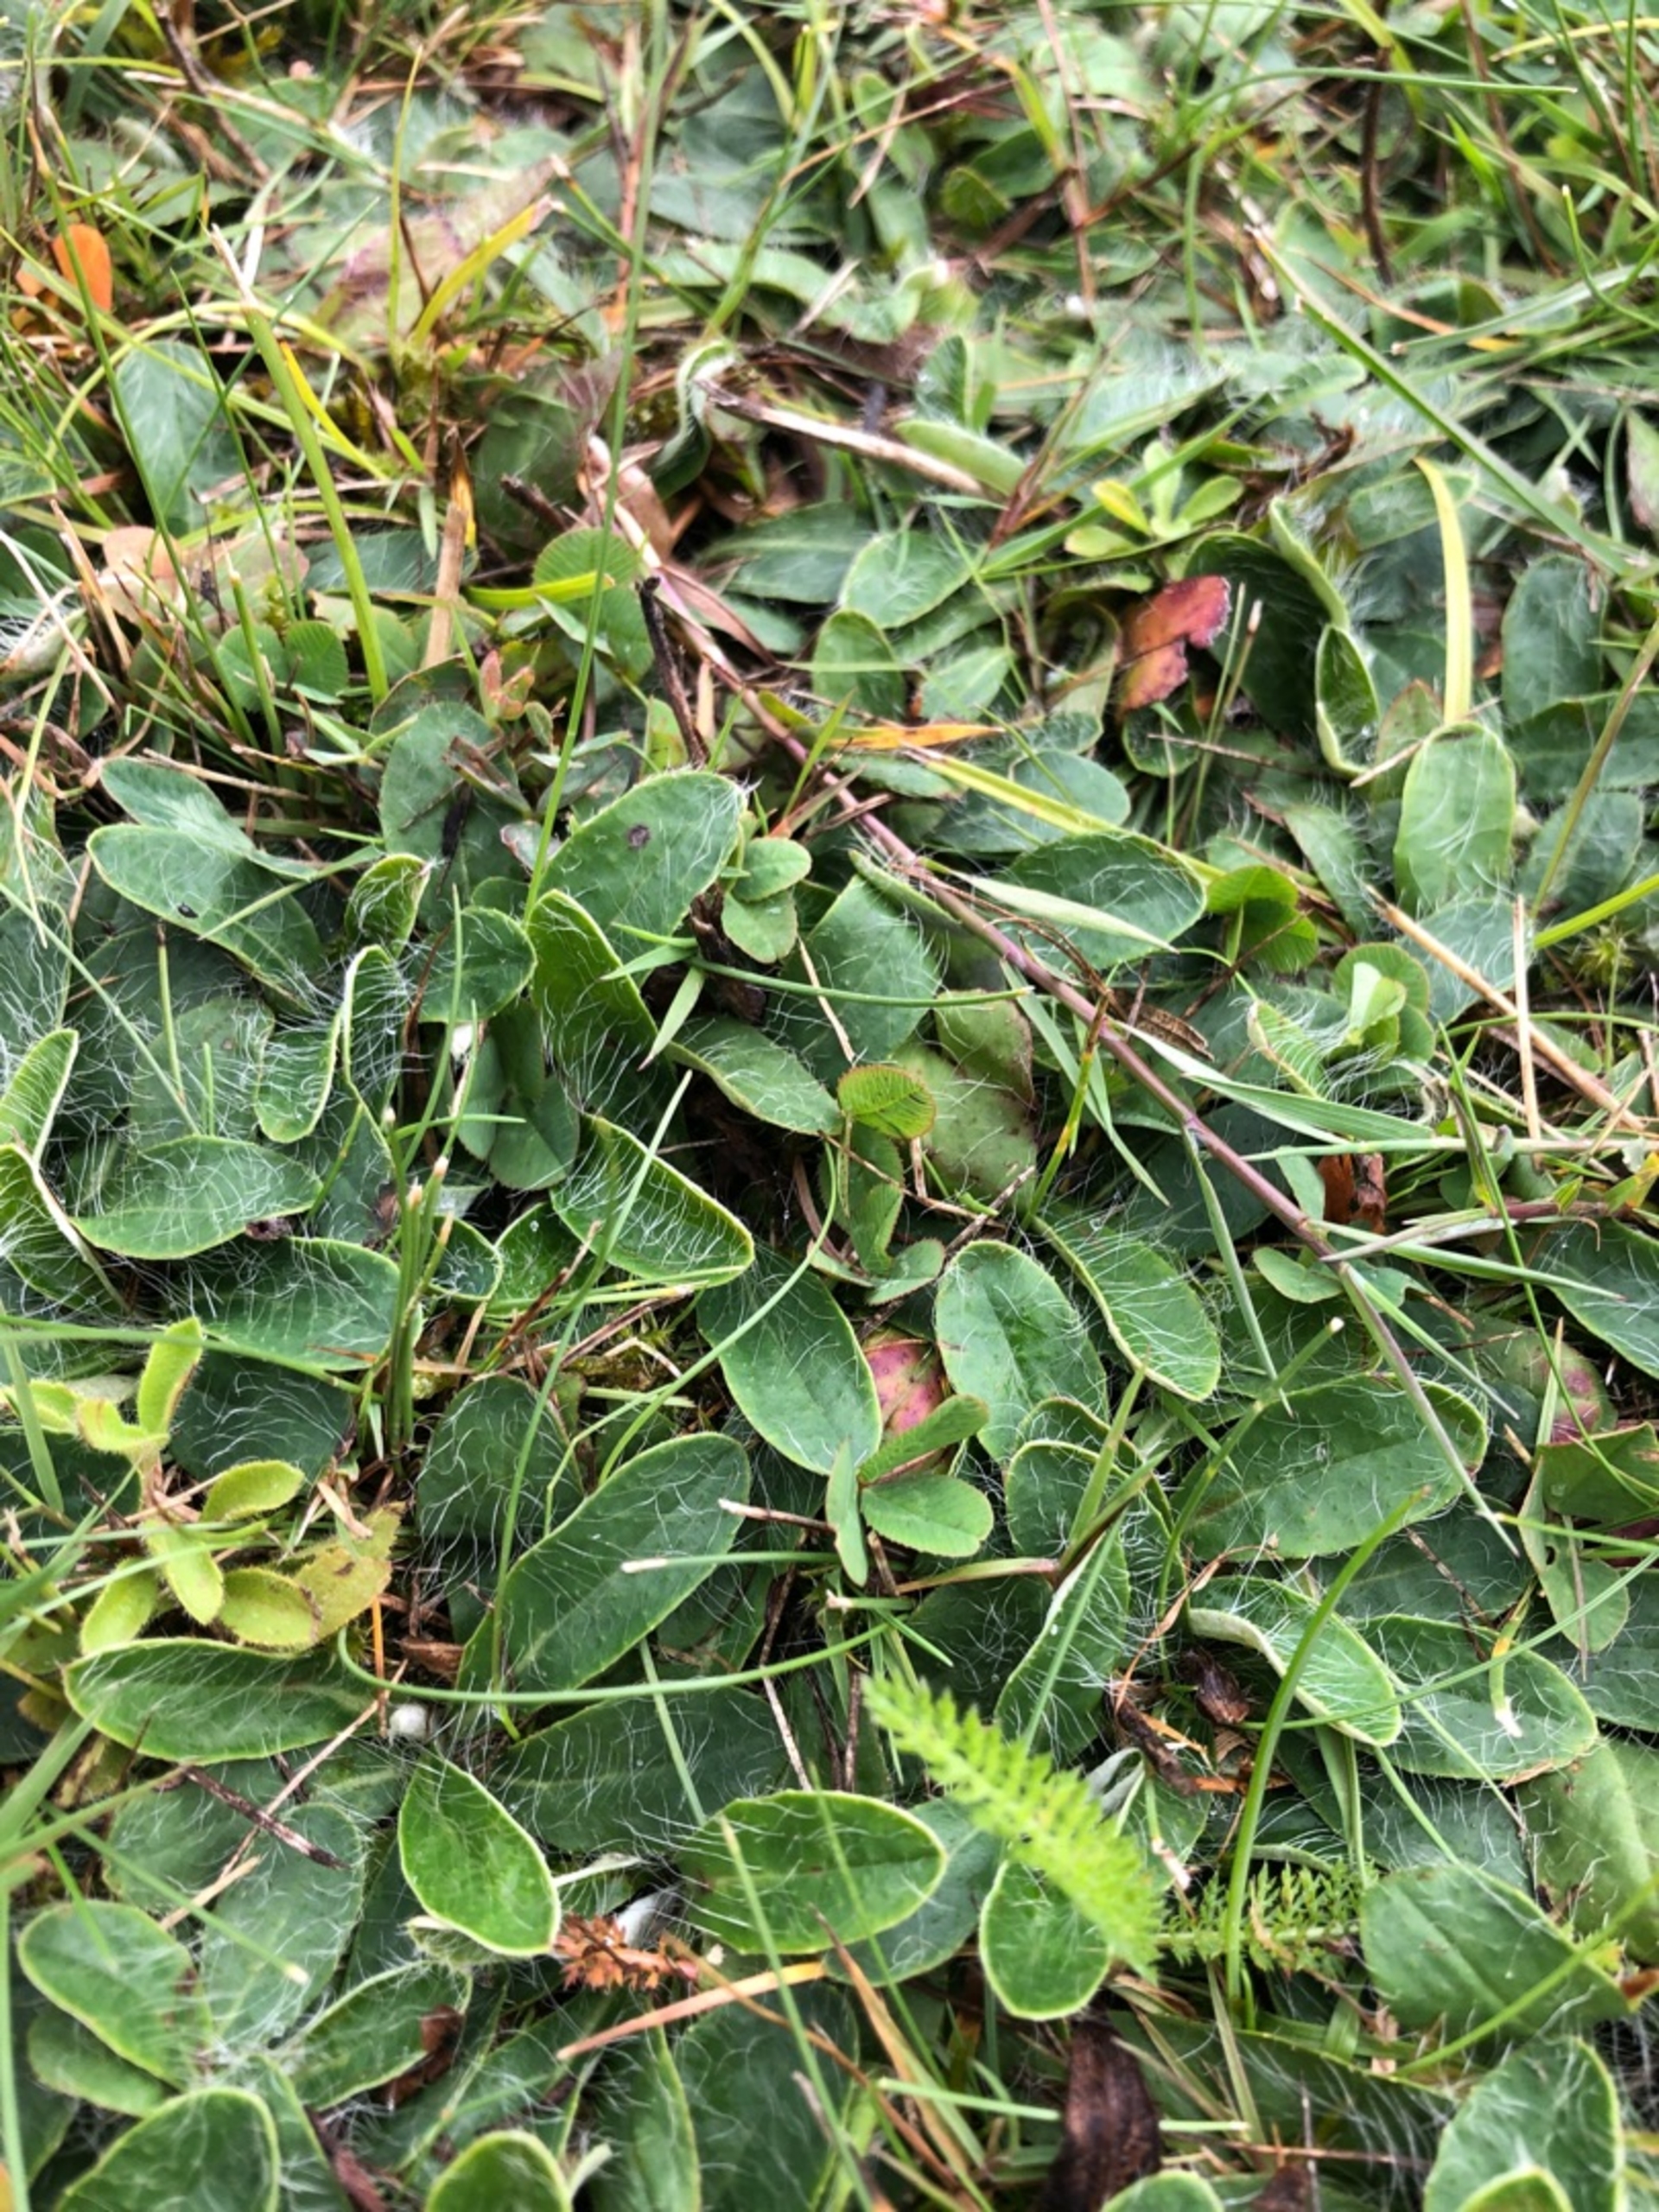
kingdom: Plantae
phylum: Tracheophyta
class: Magnoliopsida
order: Asterales
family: Asteraceae
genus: Pilosella
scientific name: Pilosella officinarum
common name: Håret høgeurt
